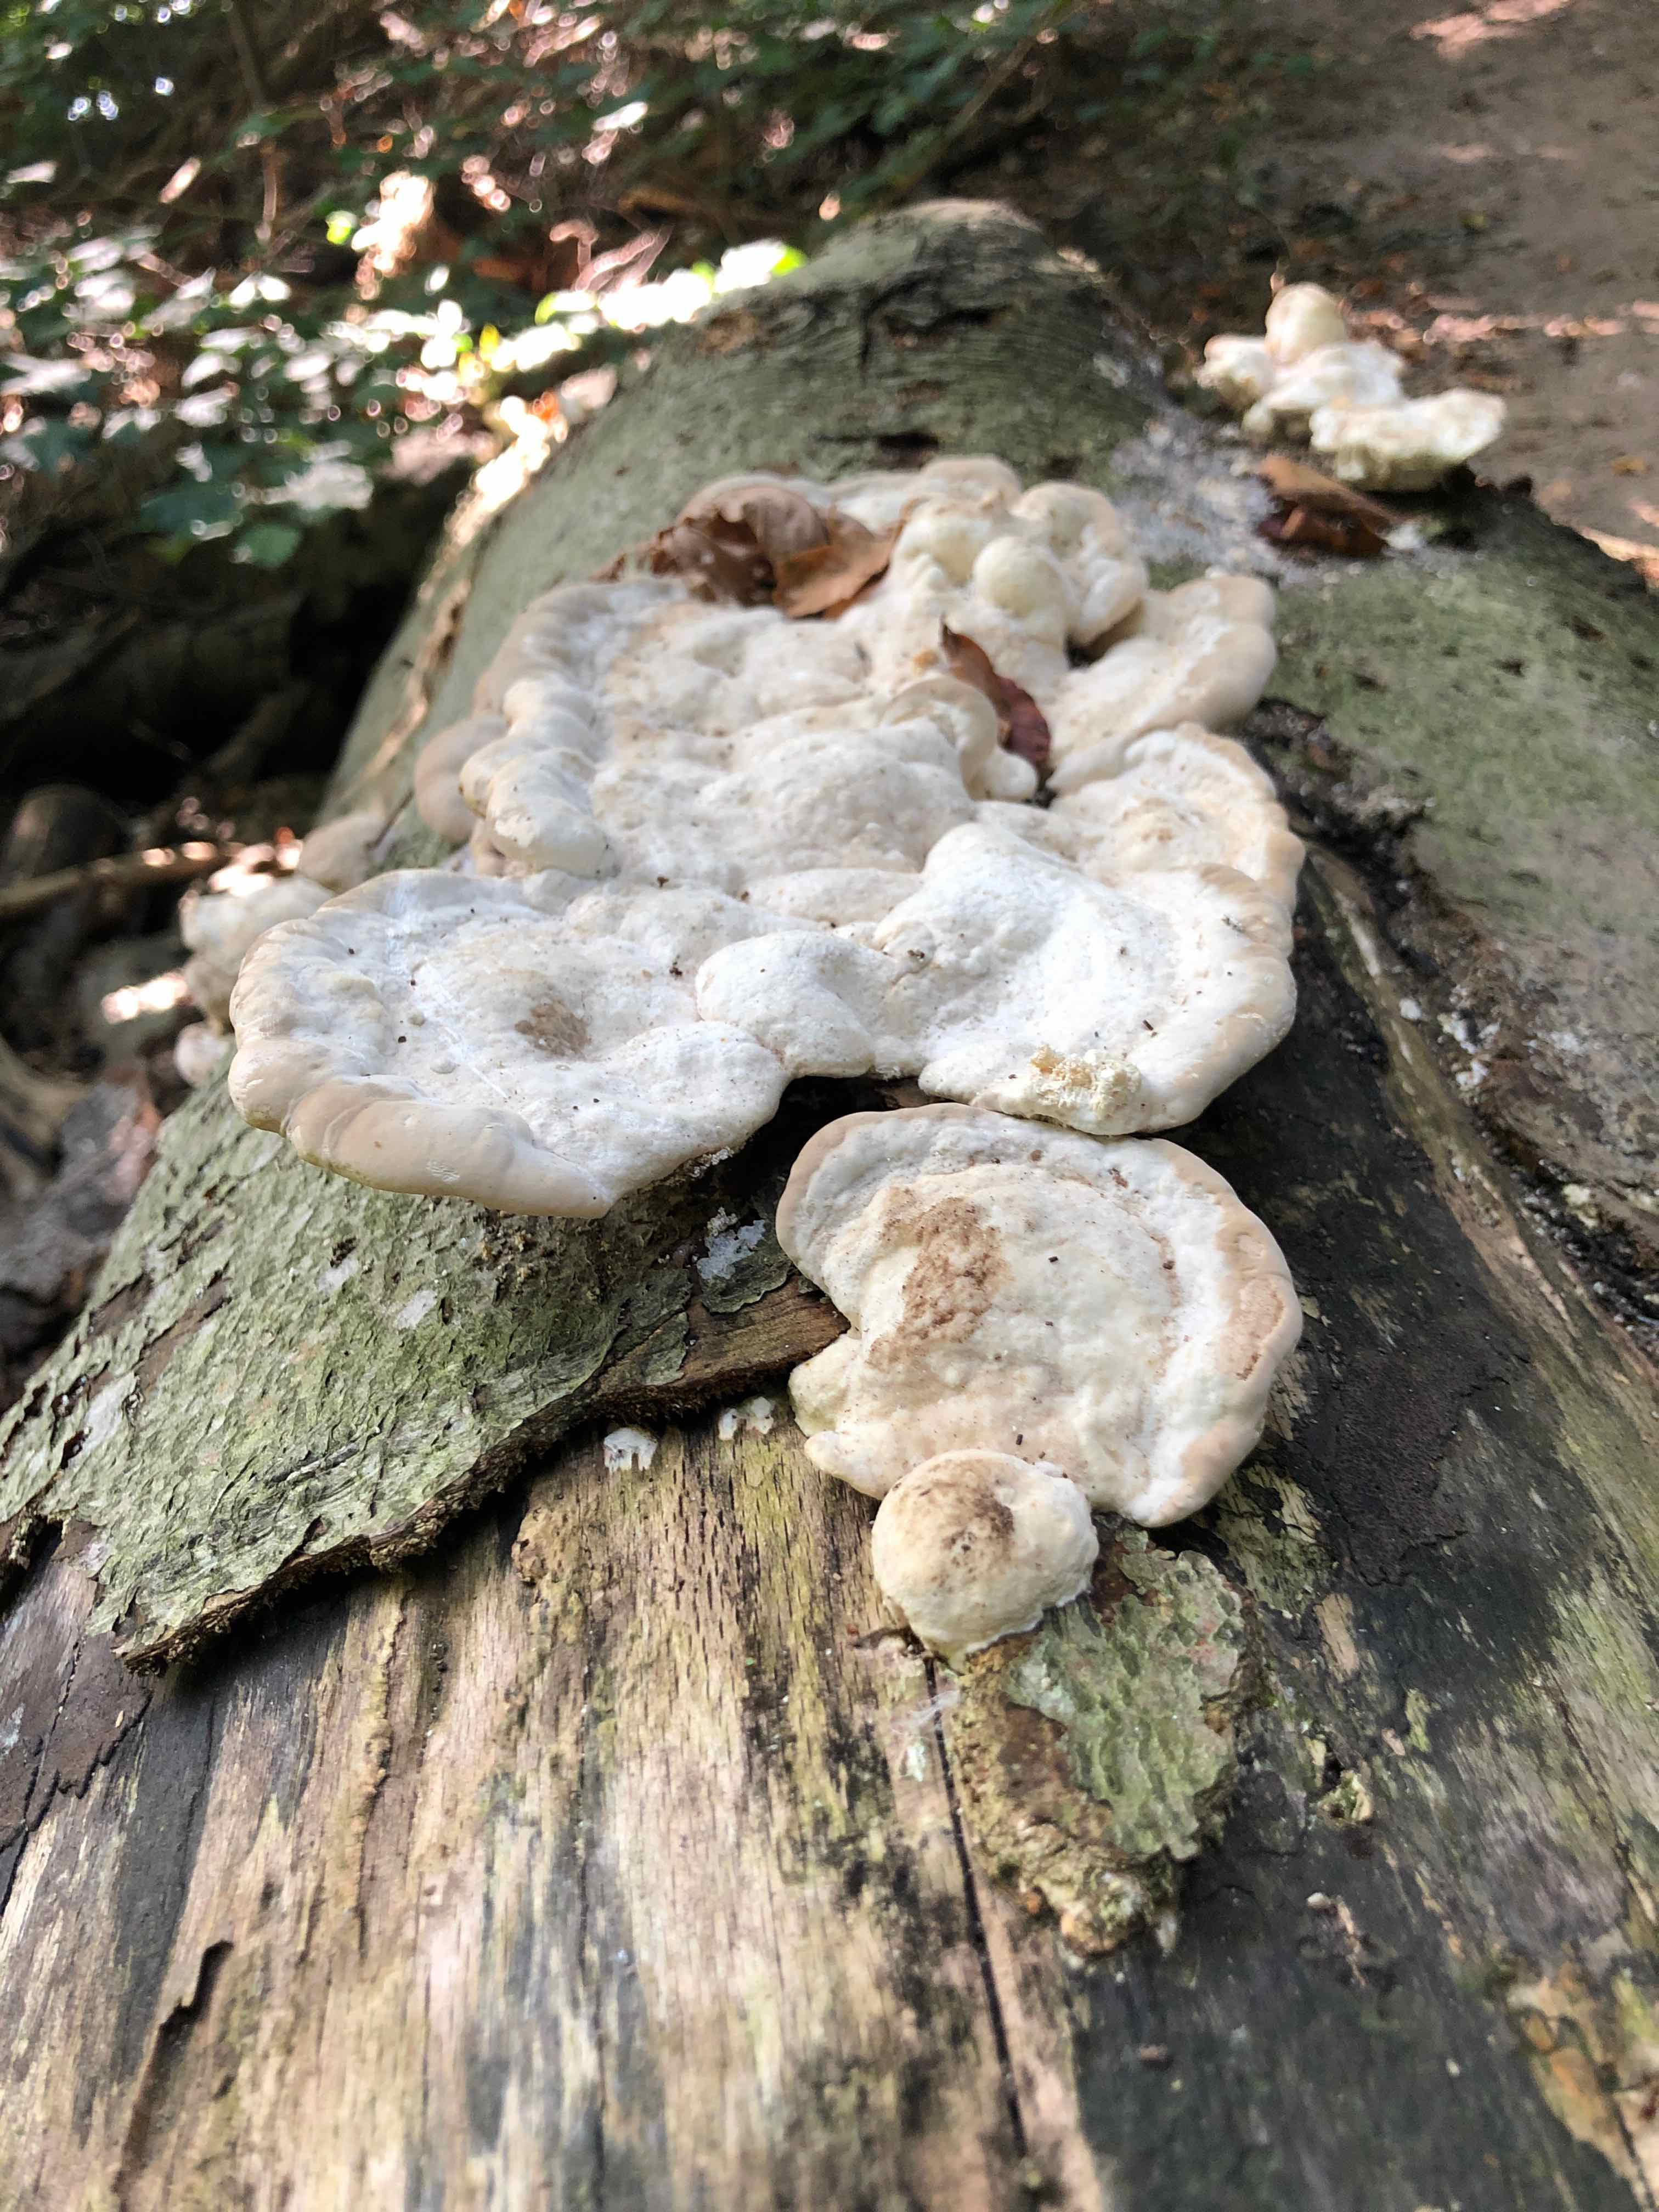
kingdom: Fungi
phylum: Basidiomycota
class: Agaricomycetes
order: Polyporales
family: Polyporaceae
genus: Trametes
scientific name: Trametes gibbosa
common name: puklet læderporesvamp
